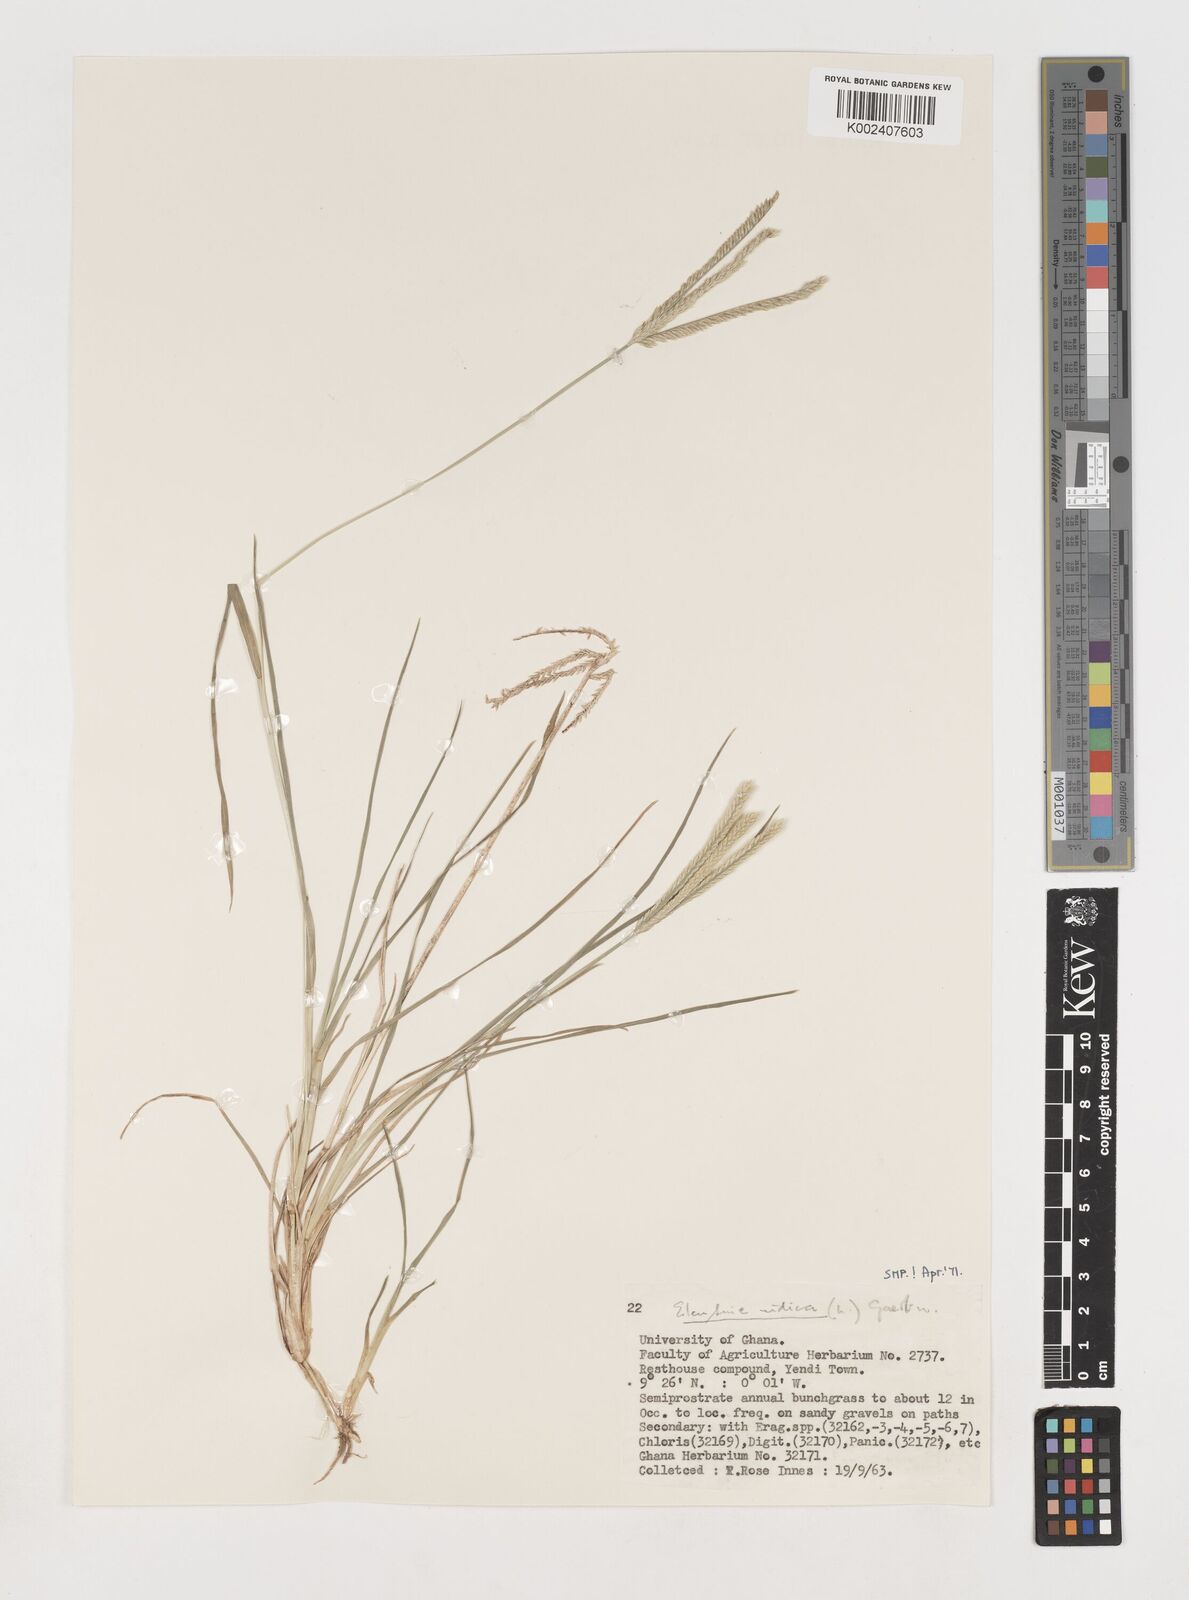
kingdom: Plantae
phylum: Tracheophyta
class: Liliopsida
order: Poales
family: Poaceae
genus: Eleusine
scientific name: Eleusine indica
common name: Yard-grass
